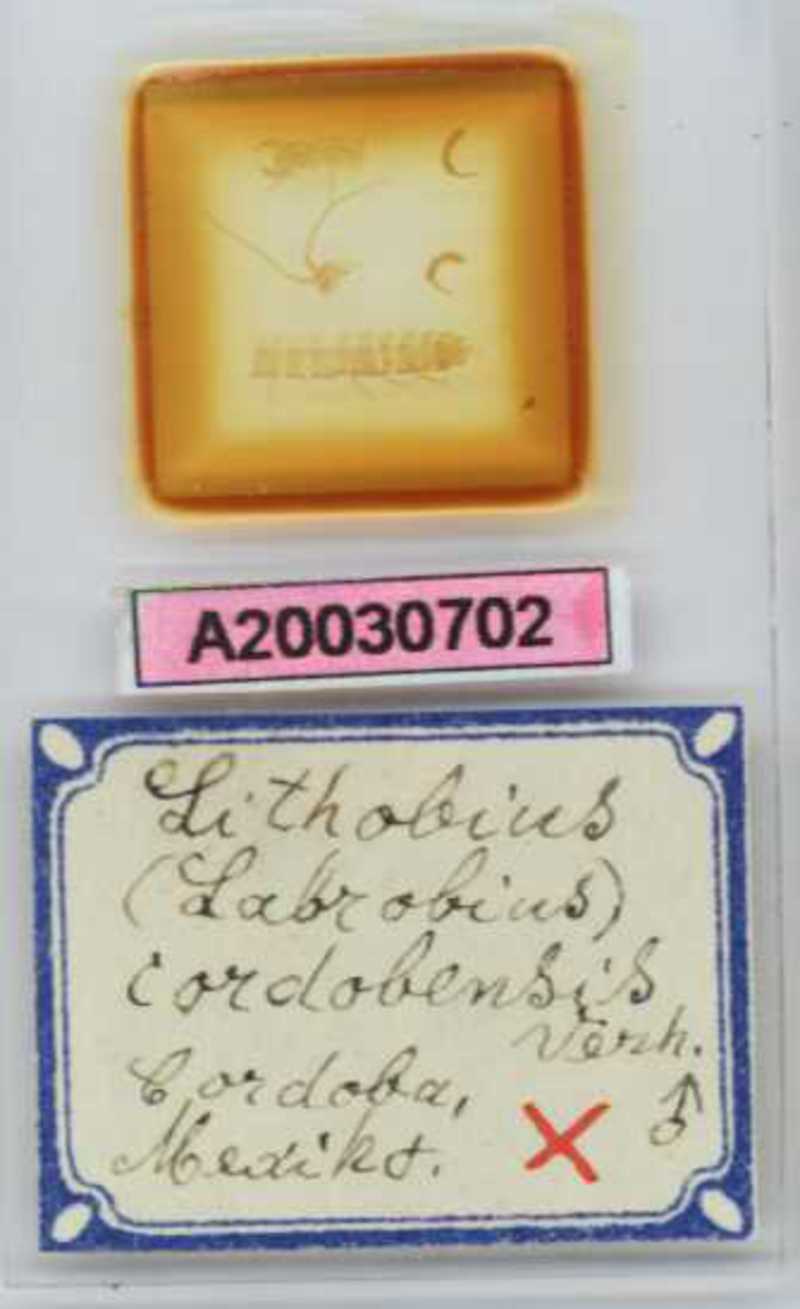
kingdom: Animalia
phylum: Arthropoda
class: Chilopoda
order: Lithobiomorpha
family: Lithobiidae
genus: Lithobius
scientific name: Lithobius
